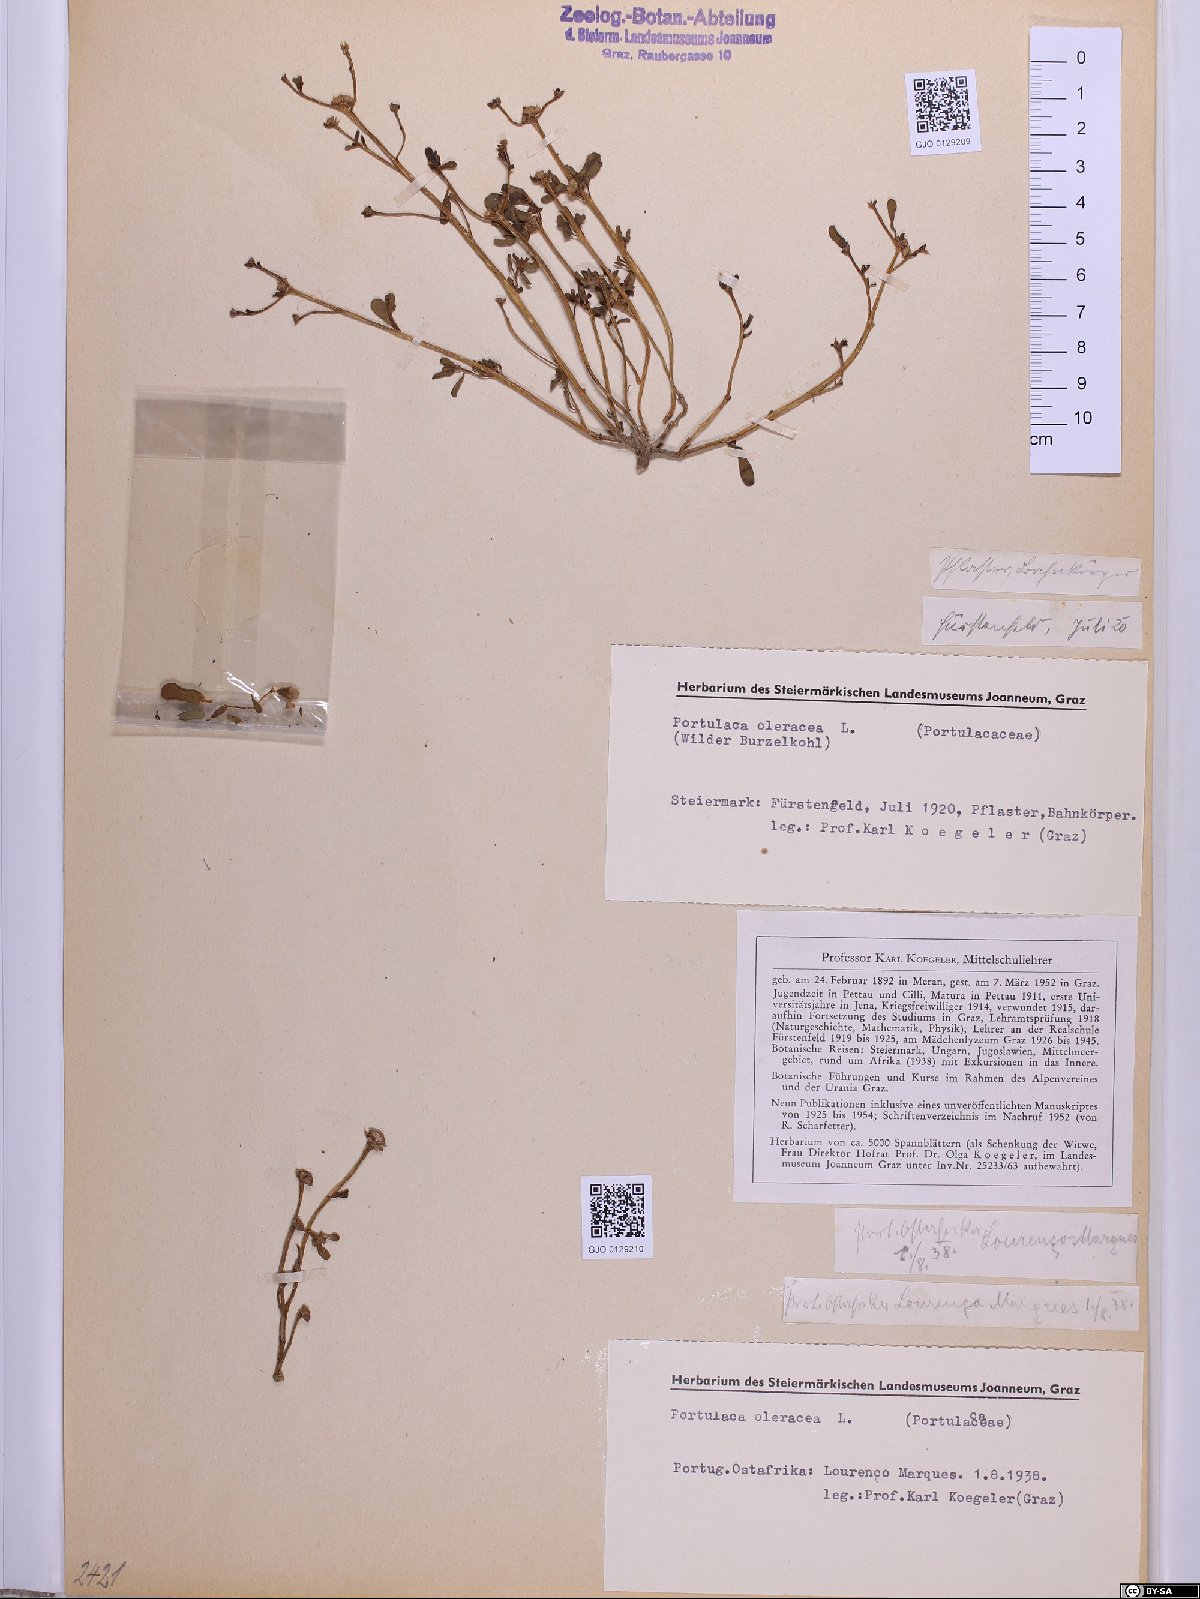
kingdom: Plantae
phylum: Tracheophyta
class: Magnoliopsida
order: Caryophyllales
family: Portulacaceae
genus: Portulaca
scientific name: Portulaca oleracea
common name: Common purslane
